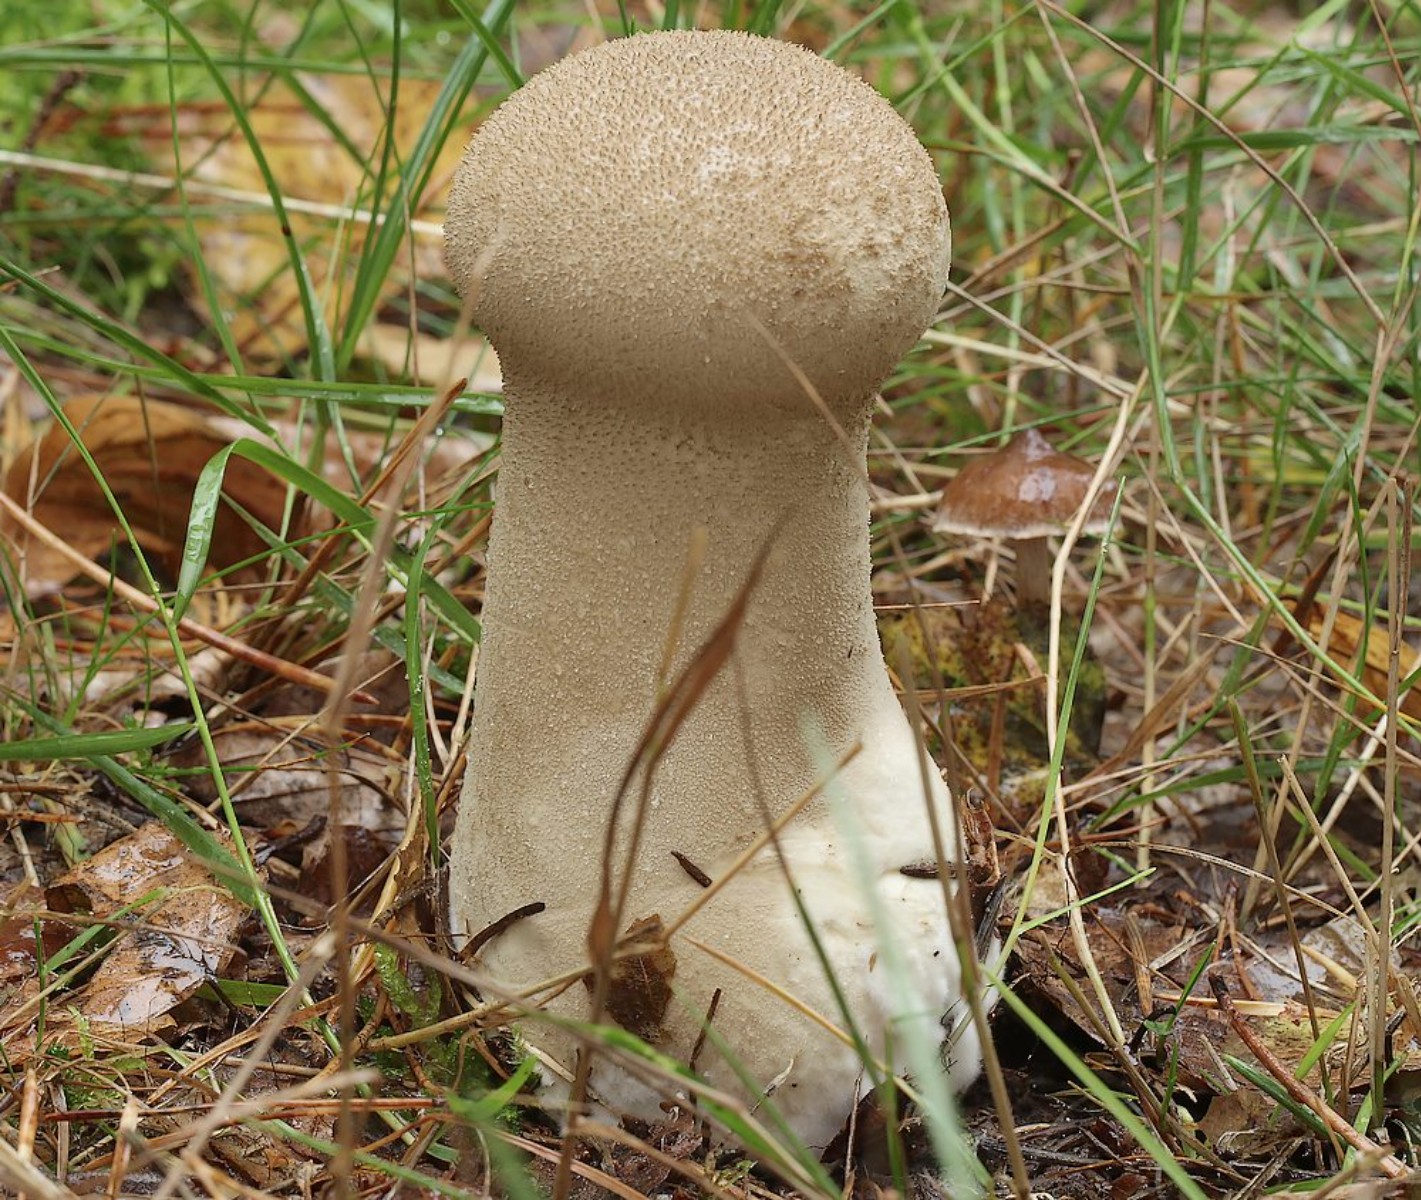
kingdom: Fungi
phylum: Basidiomycota
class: Agaricomycetes
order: Agaricales
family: Lycoperdaceae
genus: Lycoperdon
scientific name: Lycoperdon excipuliforme
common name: højstokket støvbold
